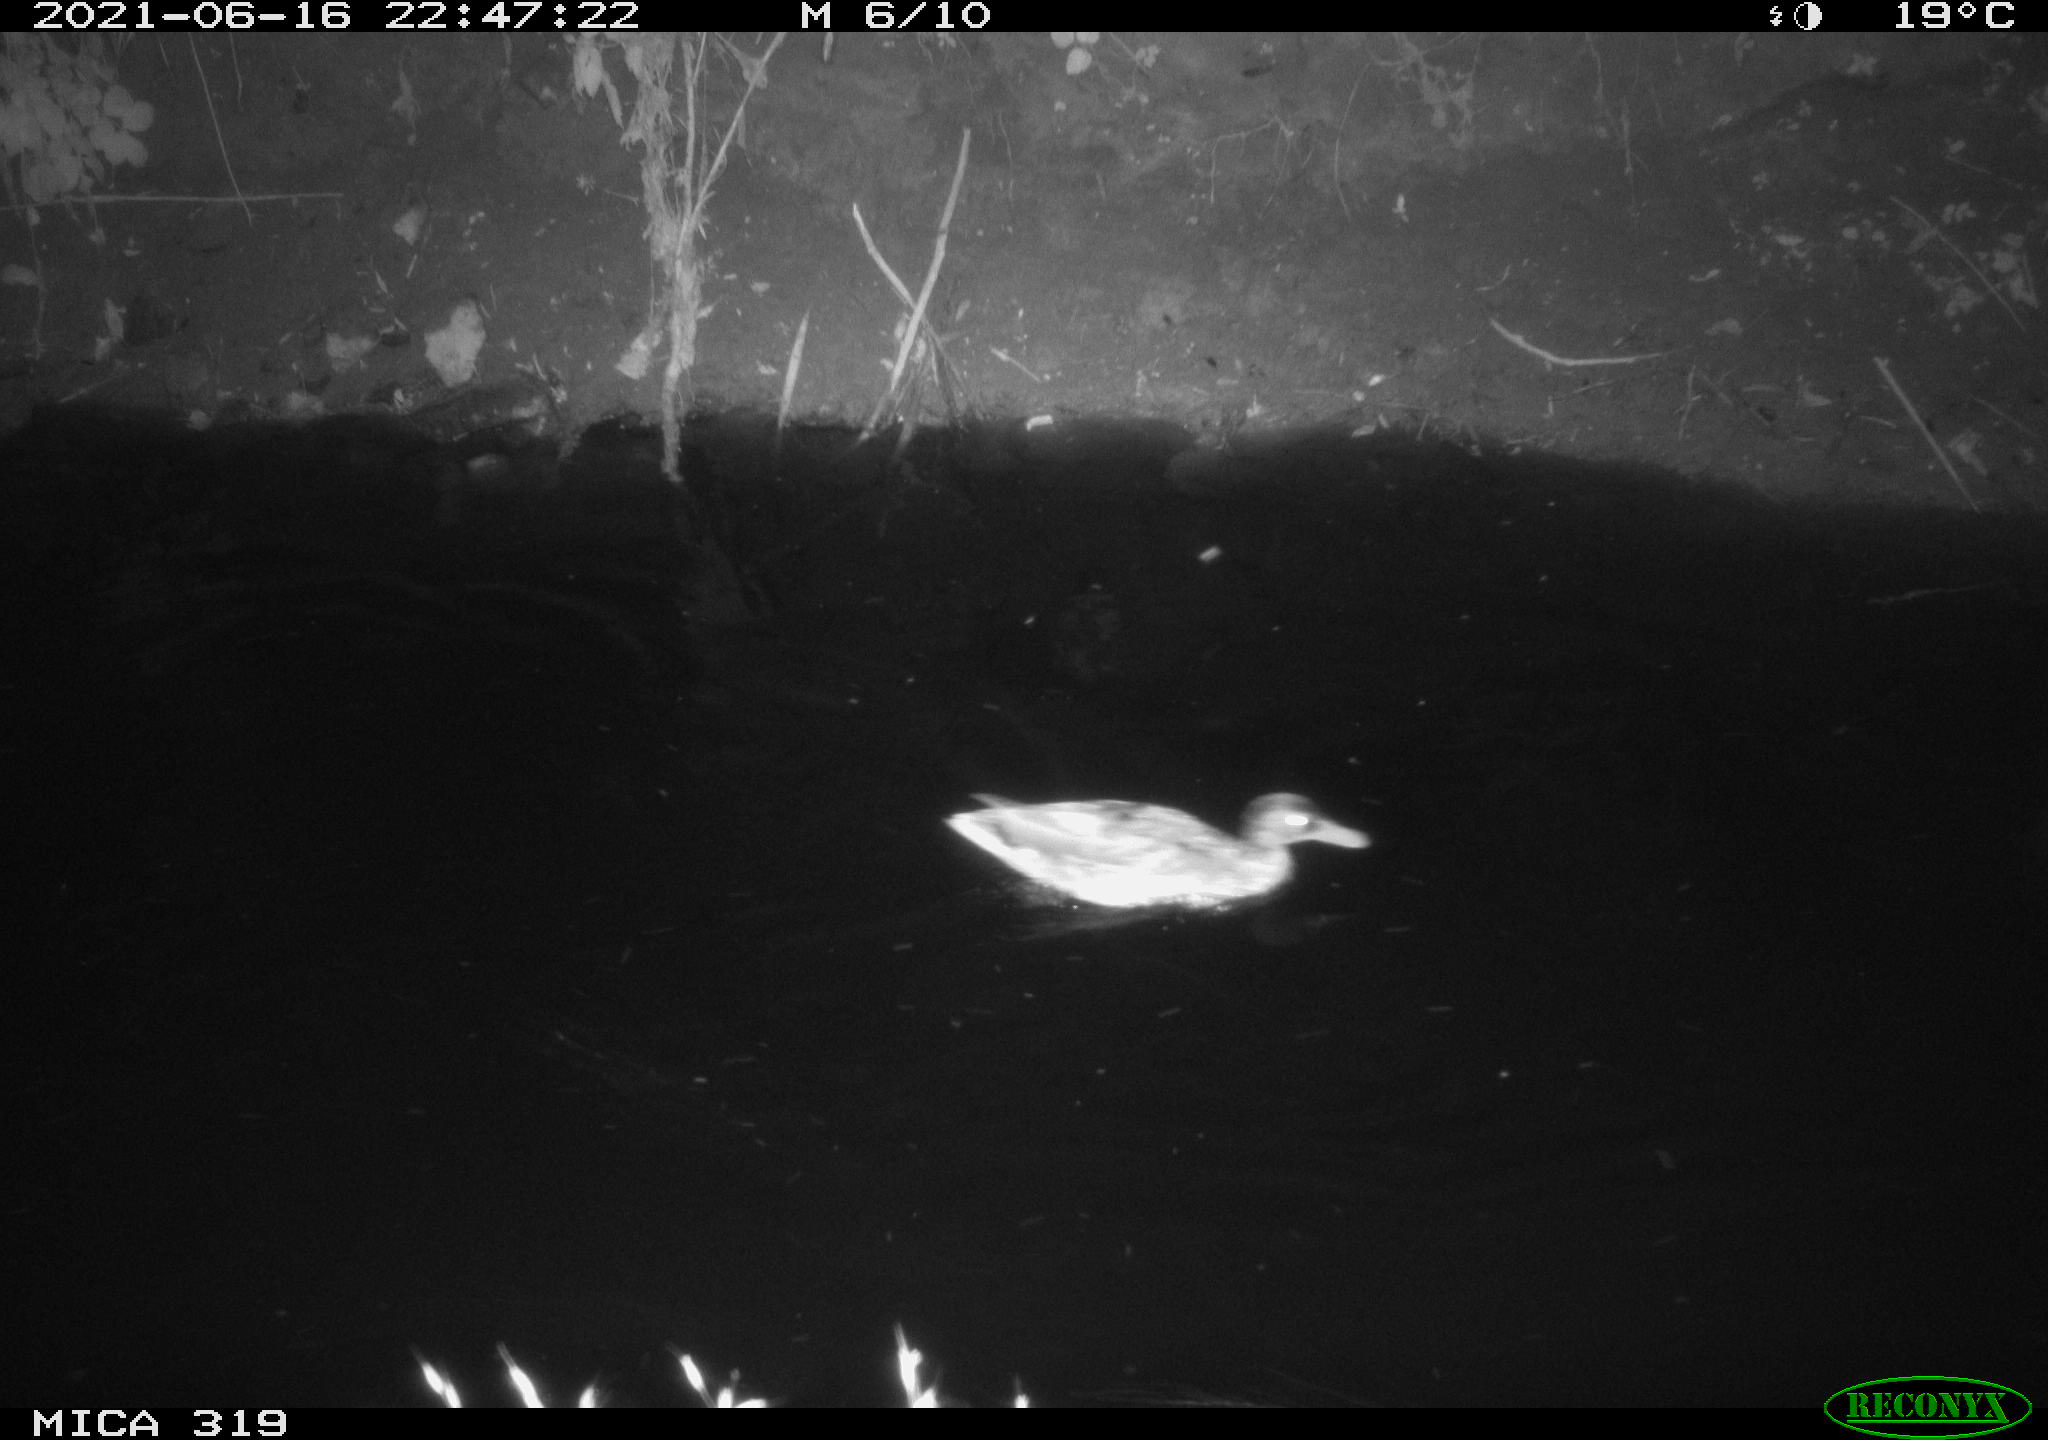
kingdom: Animalia
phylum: Chordata
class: Aves
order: Anseriformes
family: Anatidae
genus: Anas
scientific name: Anas platyrhynchos
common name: Mallard
